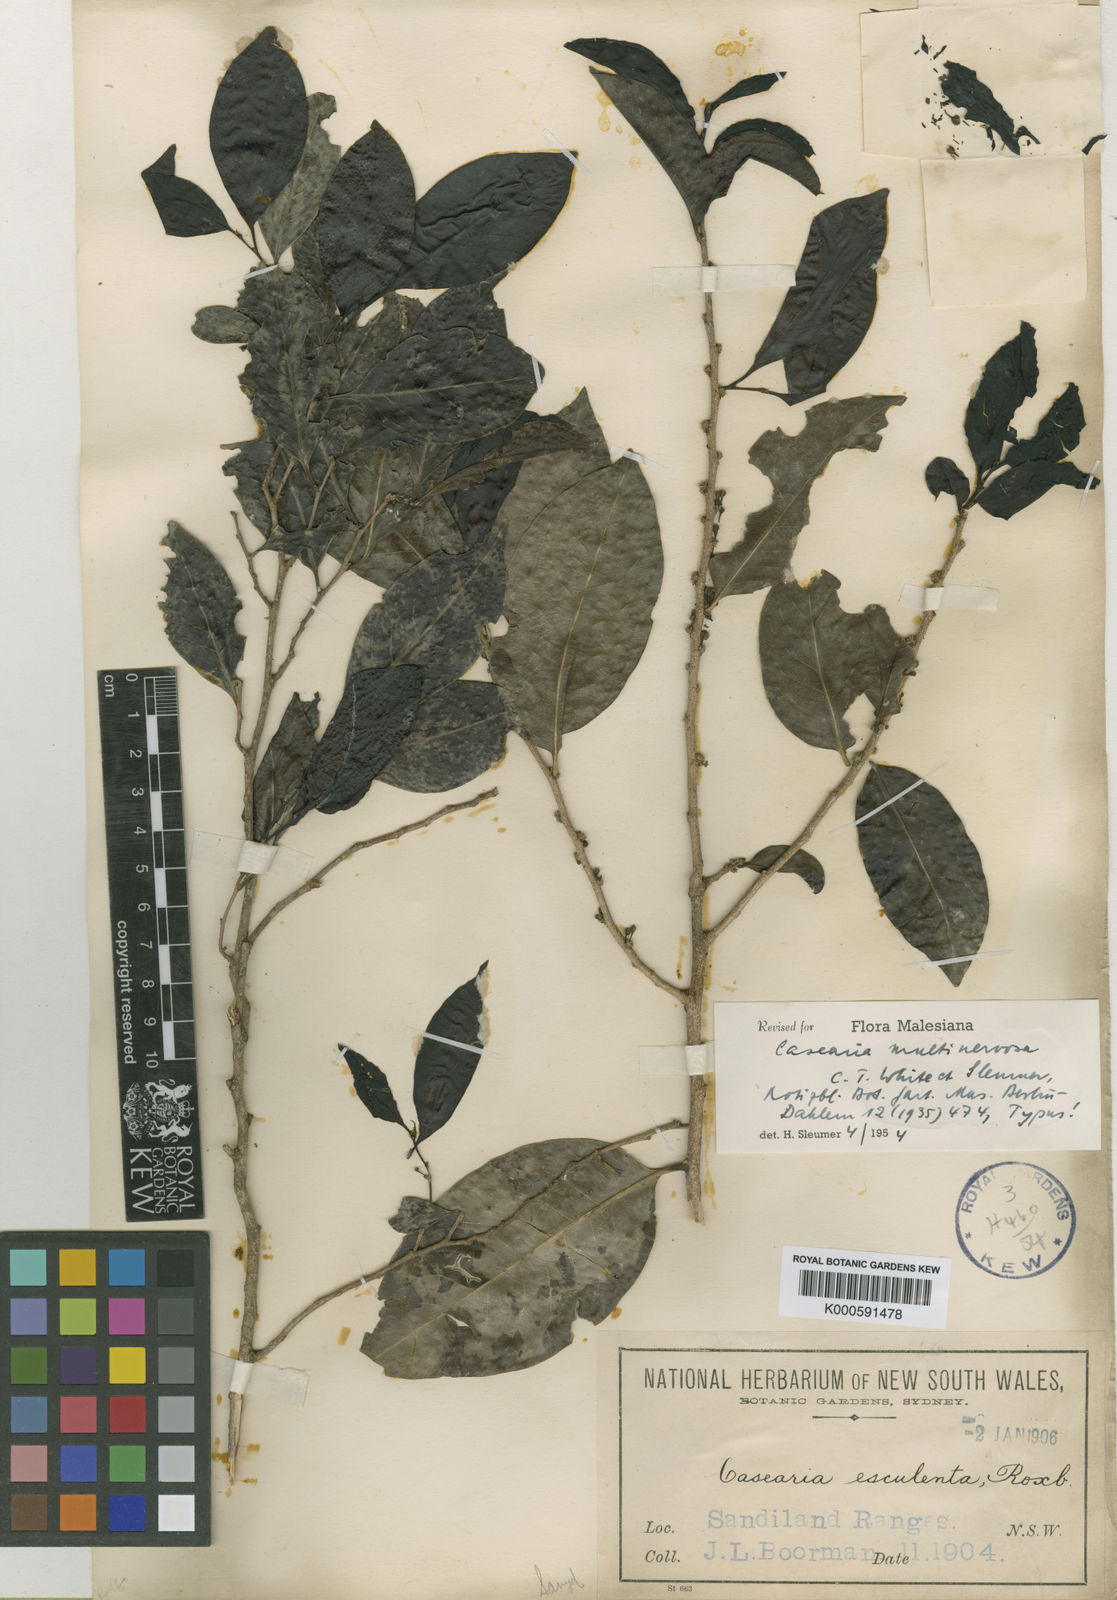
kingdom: Plantae
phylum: Tracheophyta
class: Magnoliopsida
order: Malpighiales
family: Salicaceae
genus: Casearia
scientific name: Casearia multinervosa
